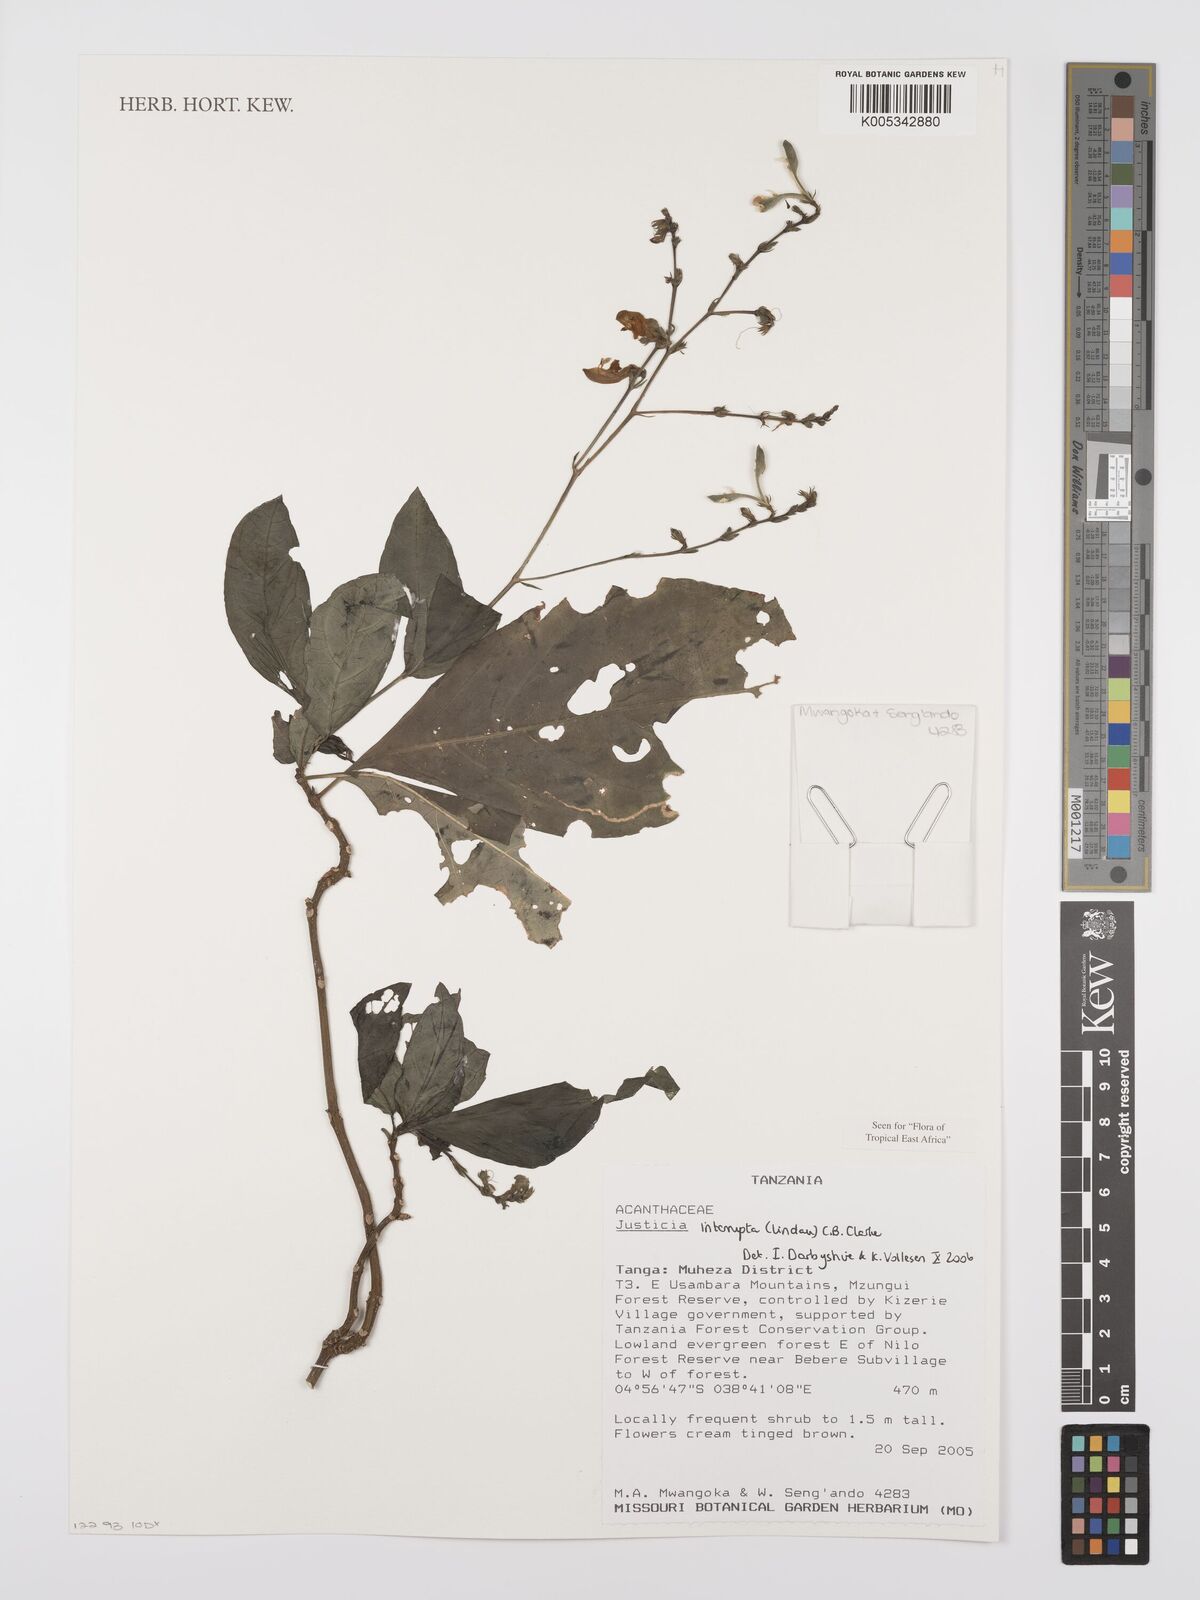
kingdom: Plantae
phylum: Tracheophyta
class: Magnoliopsida
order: Lamiales
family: Acanthaceae
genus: Justicia
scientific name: Justicia plectranthoides
